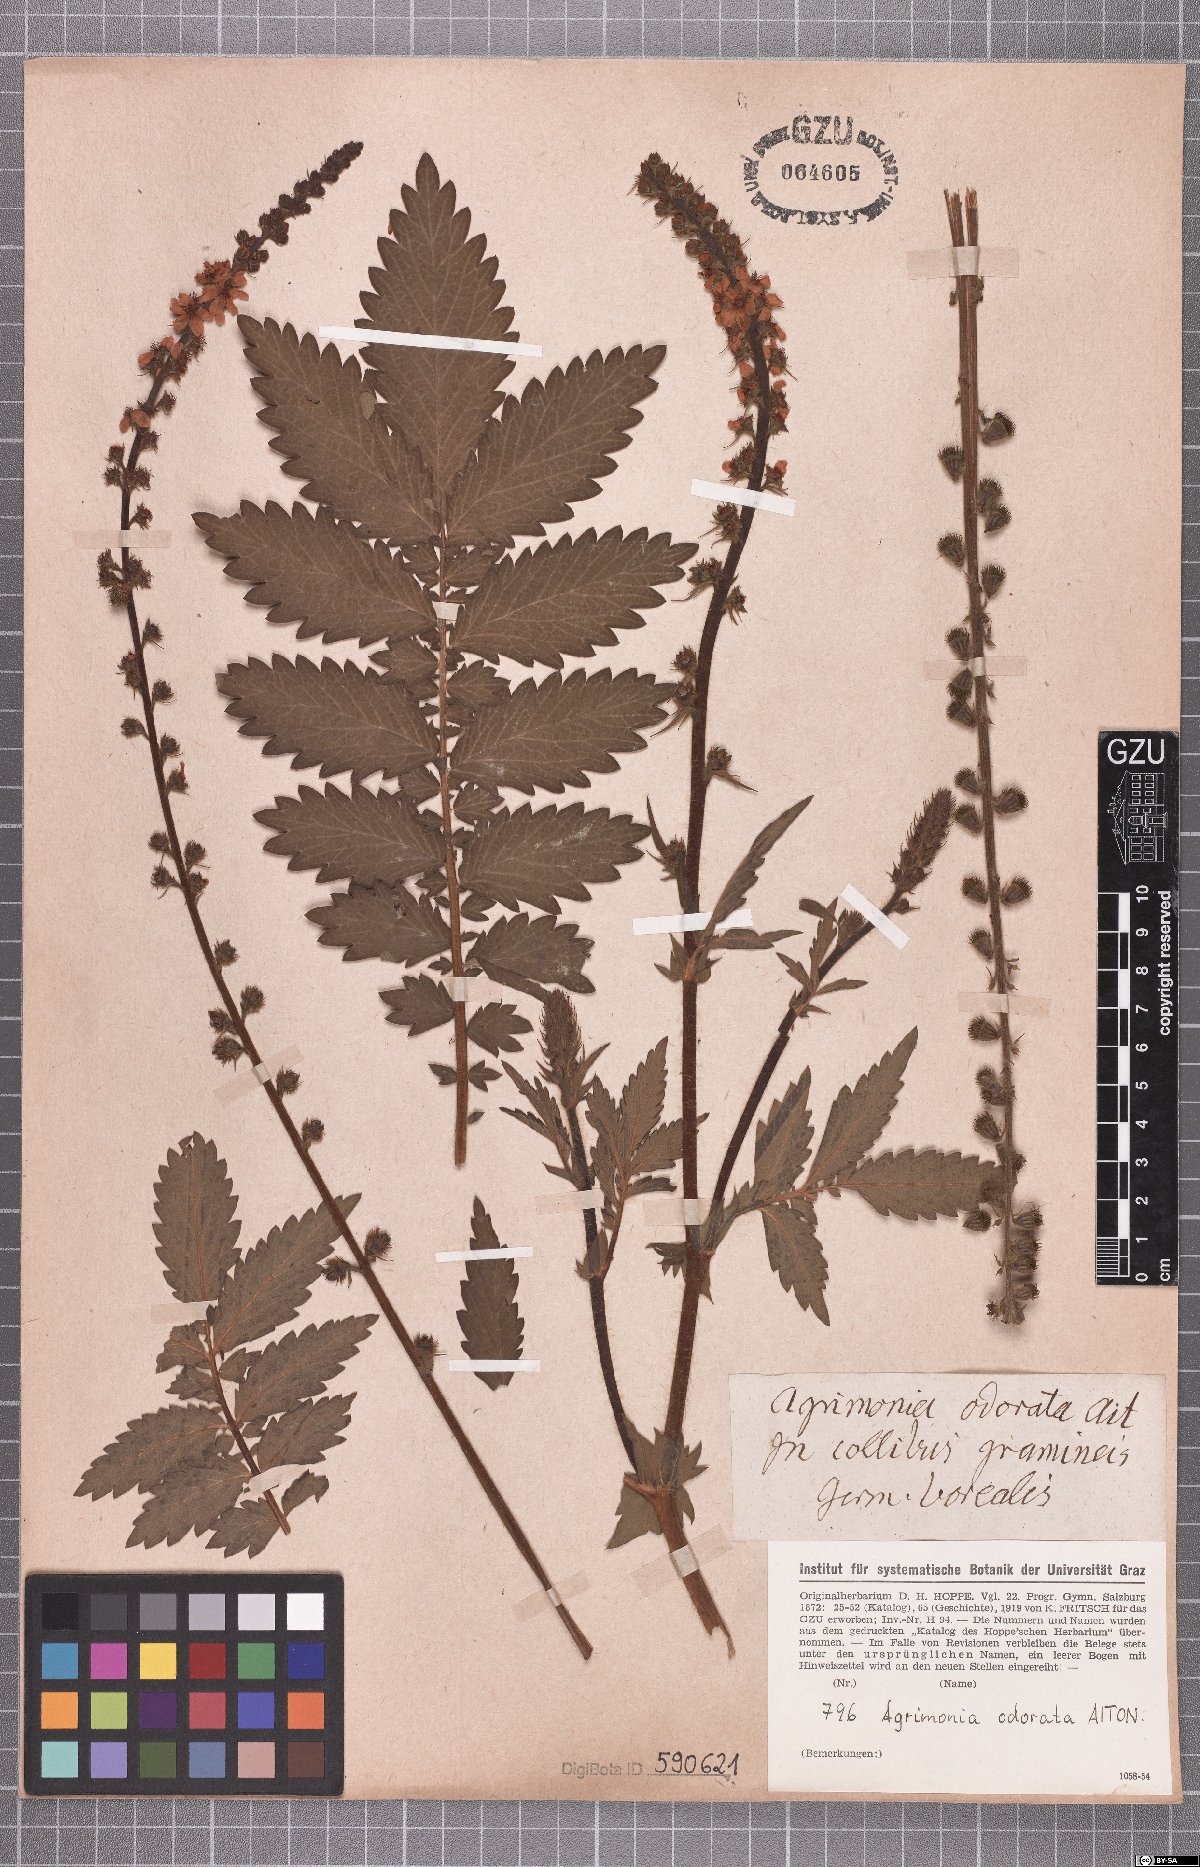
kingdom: Plantae
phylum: Tracheophyta
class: Magnoliopsida
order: Rosales
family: Rosaceae
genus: Agrimonia
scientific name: Agrimonia procera
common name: Fragrant agrimony
